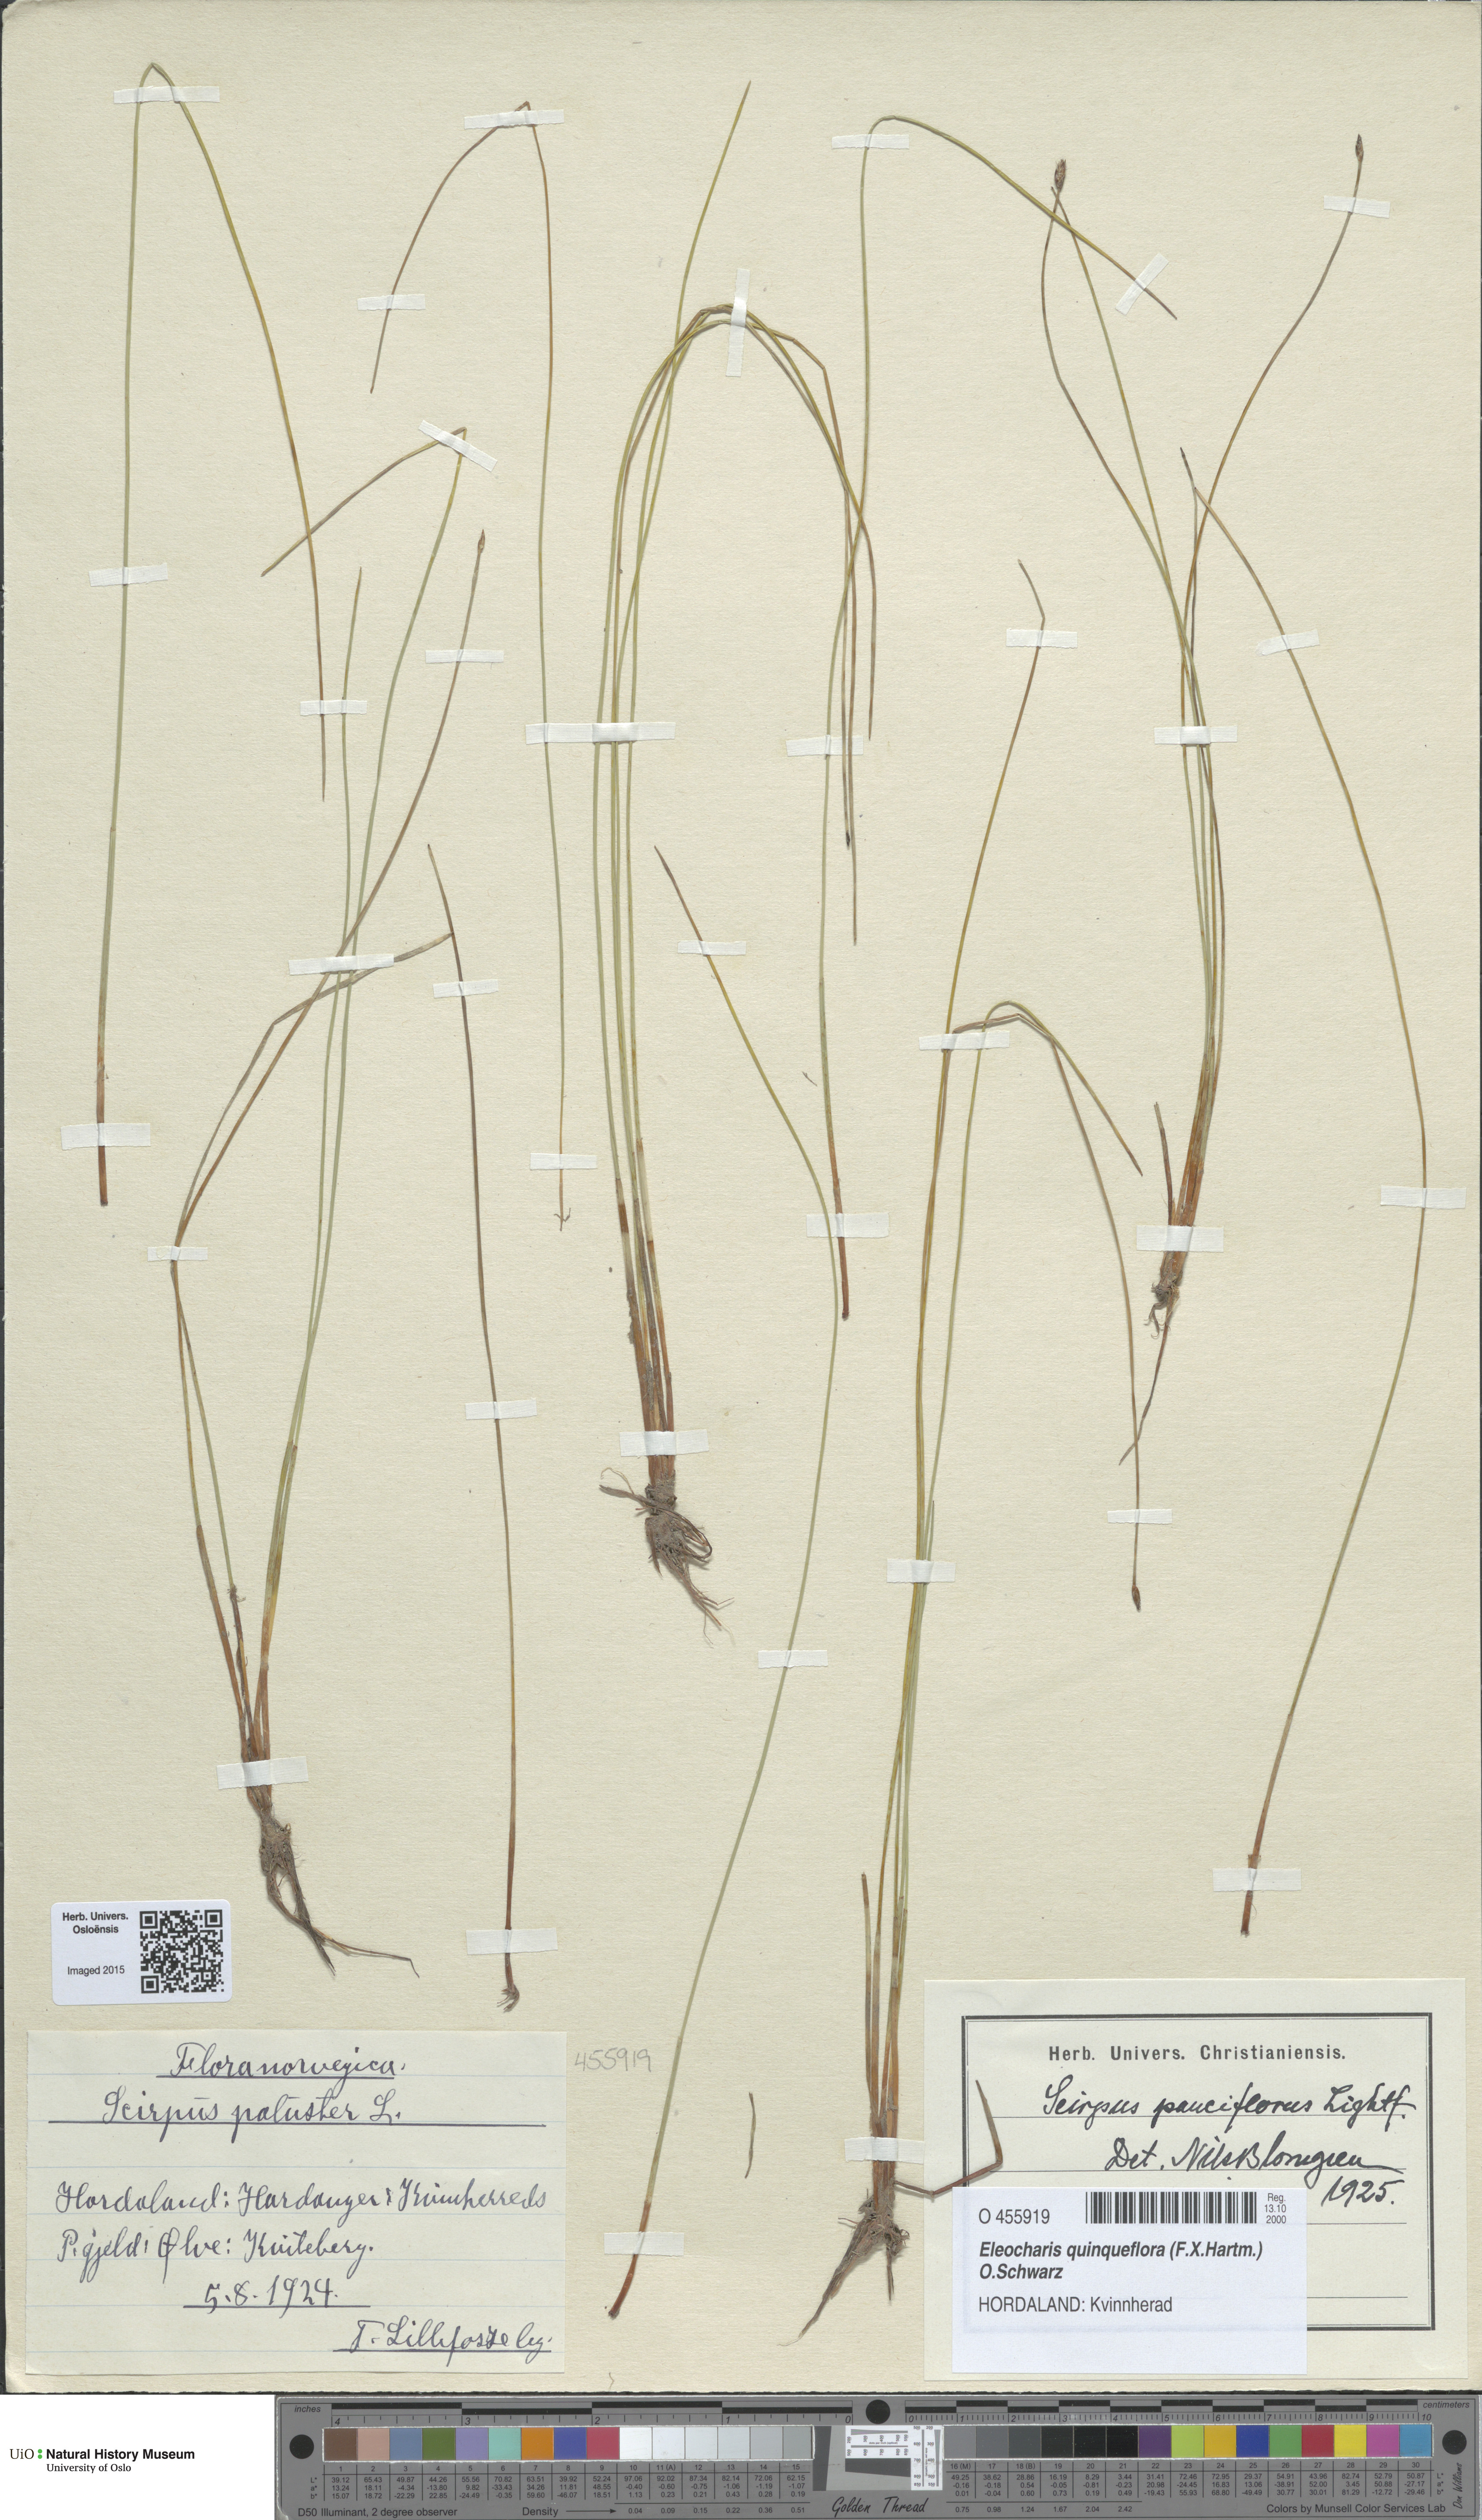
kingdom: Plantae
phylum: Tracheophyta
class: Liliopsida
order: Poales
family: Cyperaceae
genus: Eleocharis
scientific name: Eleocharis quinqueflora
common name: Few-flowered spike-rush
